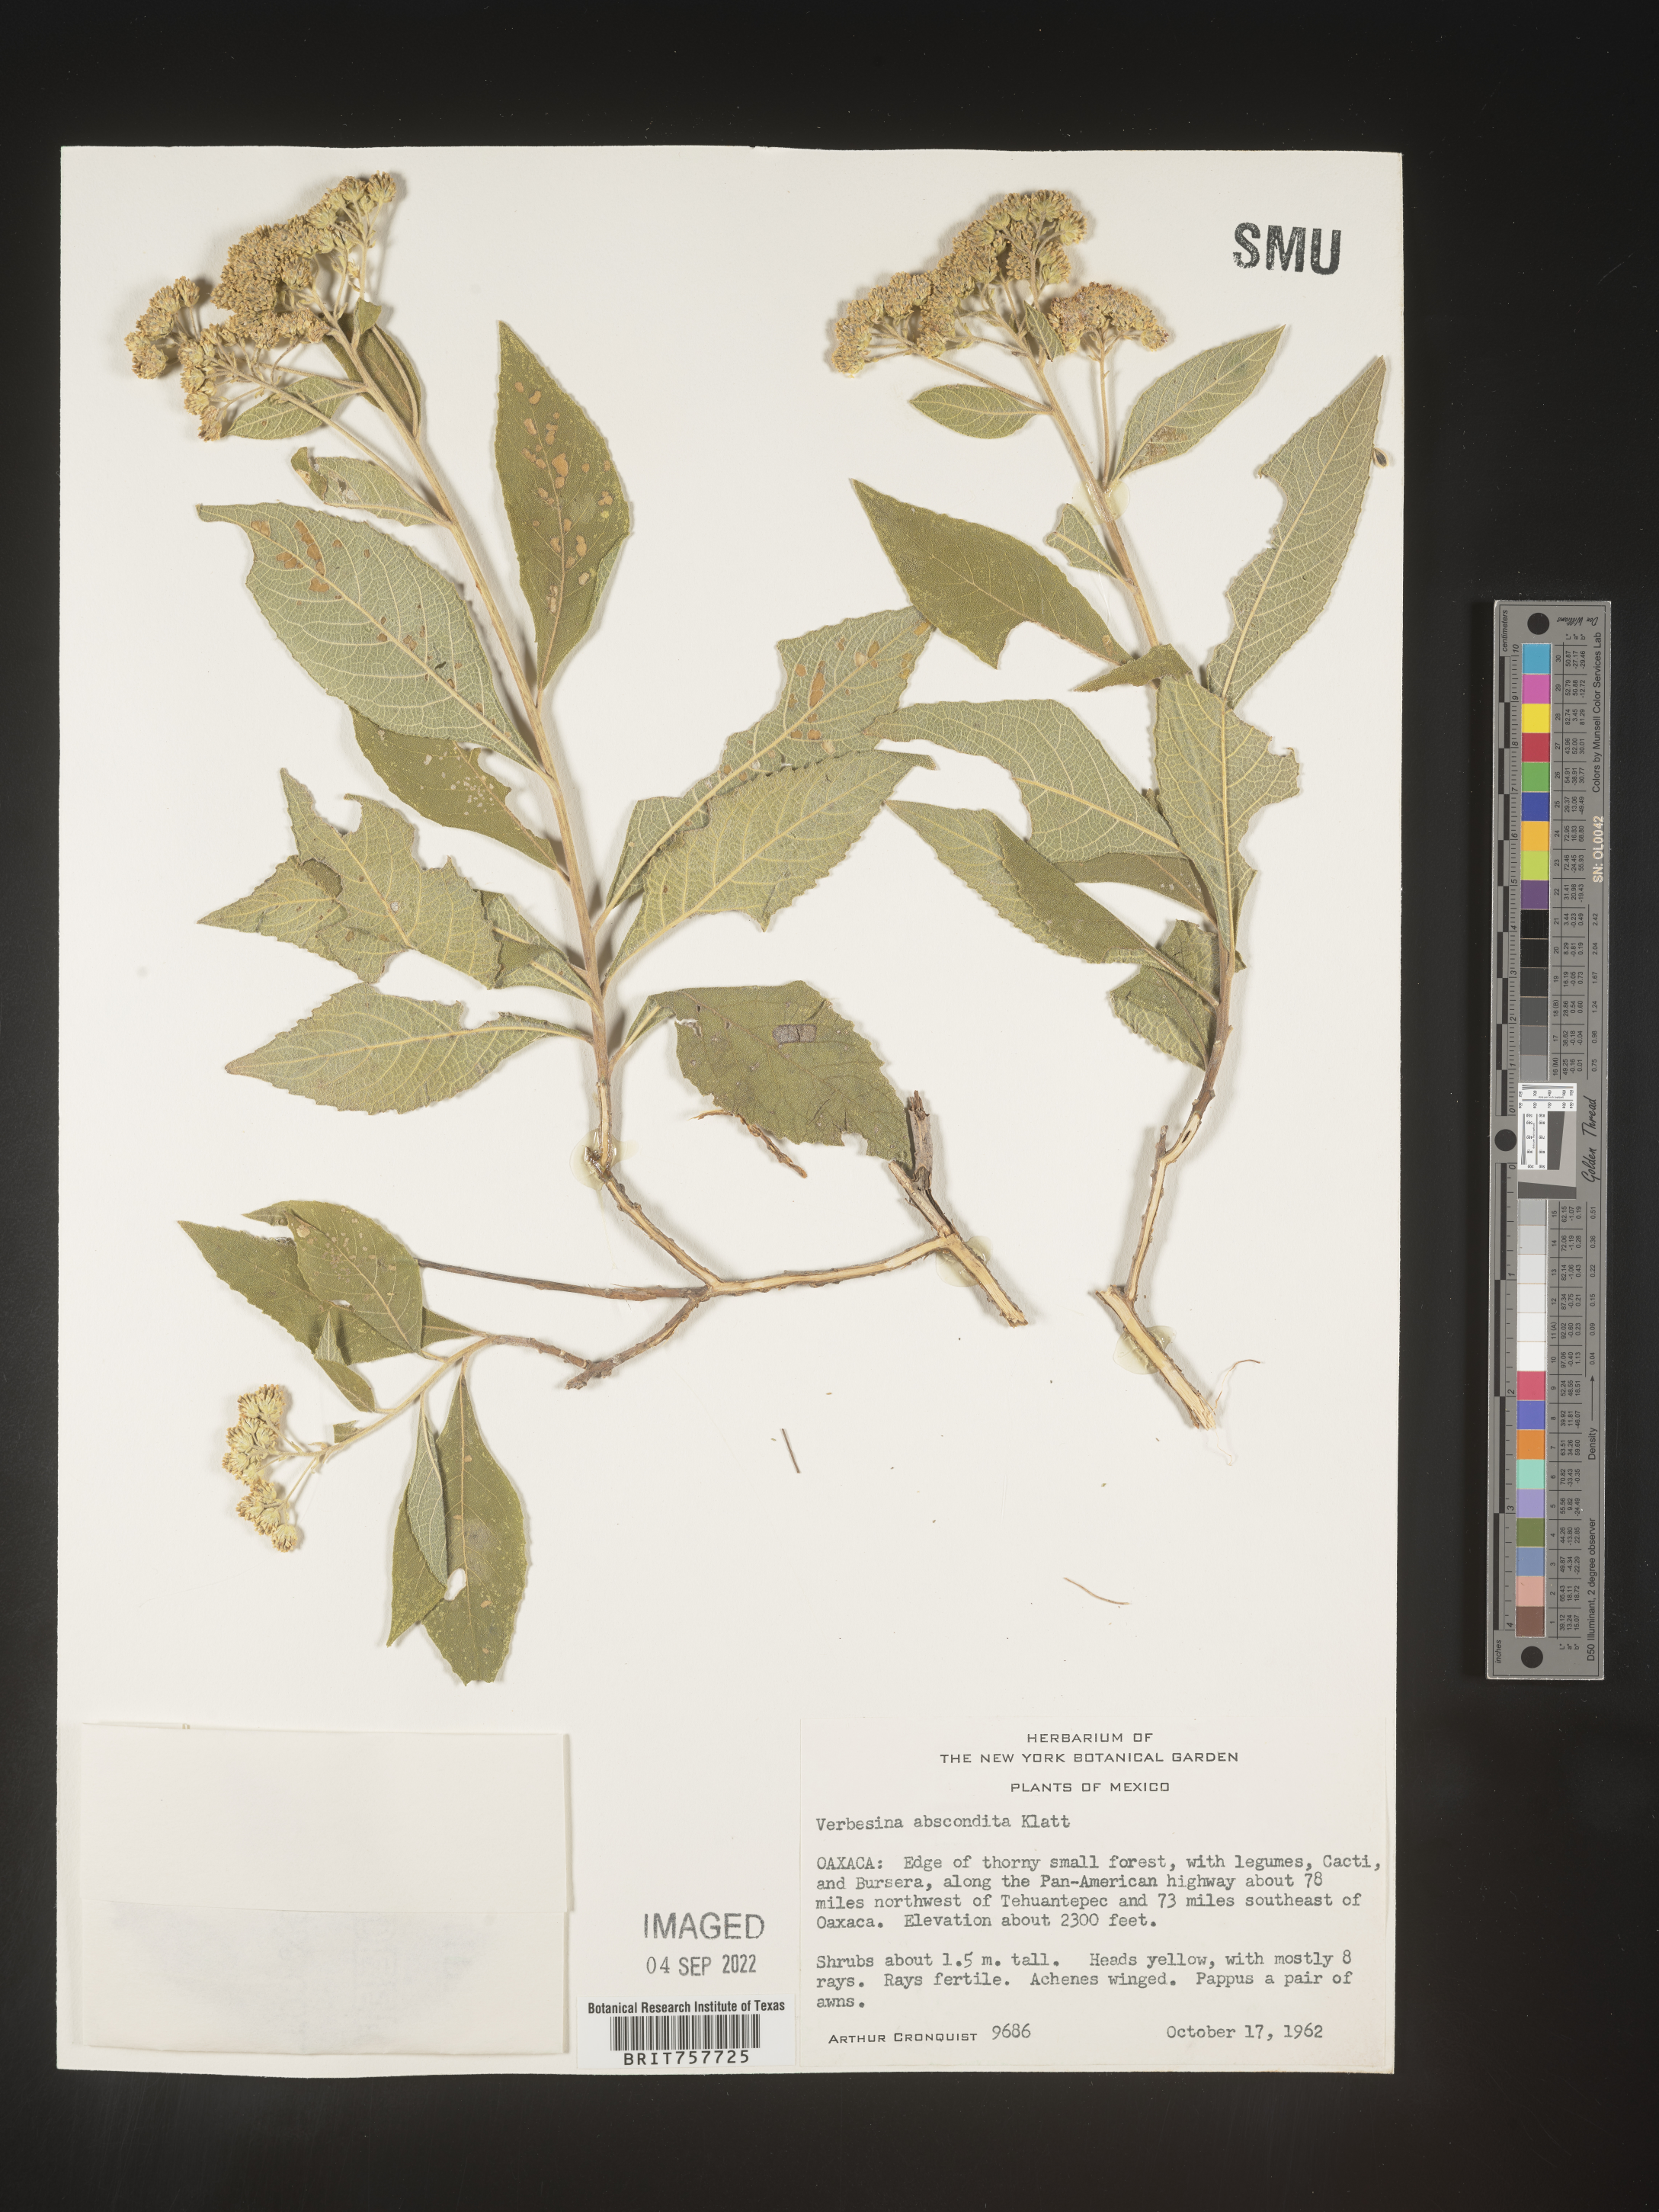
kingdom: Plantae
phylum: Tracheophyta
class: Magnoliopsida
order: Asterales
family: Asteraceae
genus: Verbesina
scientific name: Verbesina
